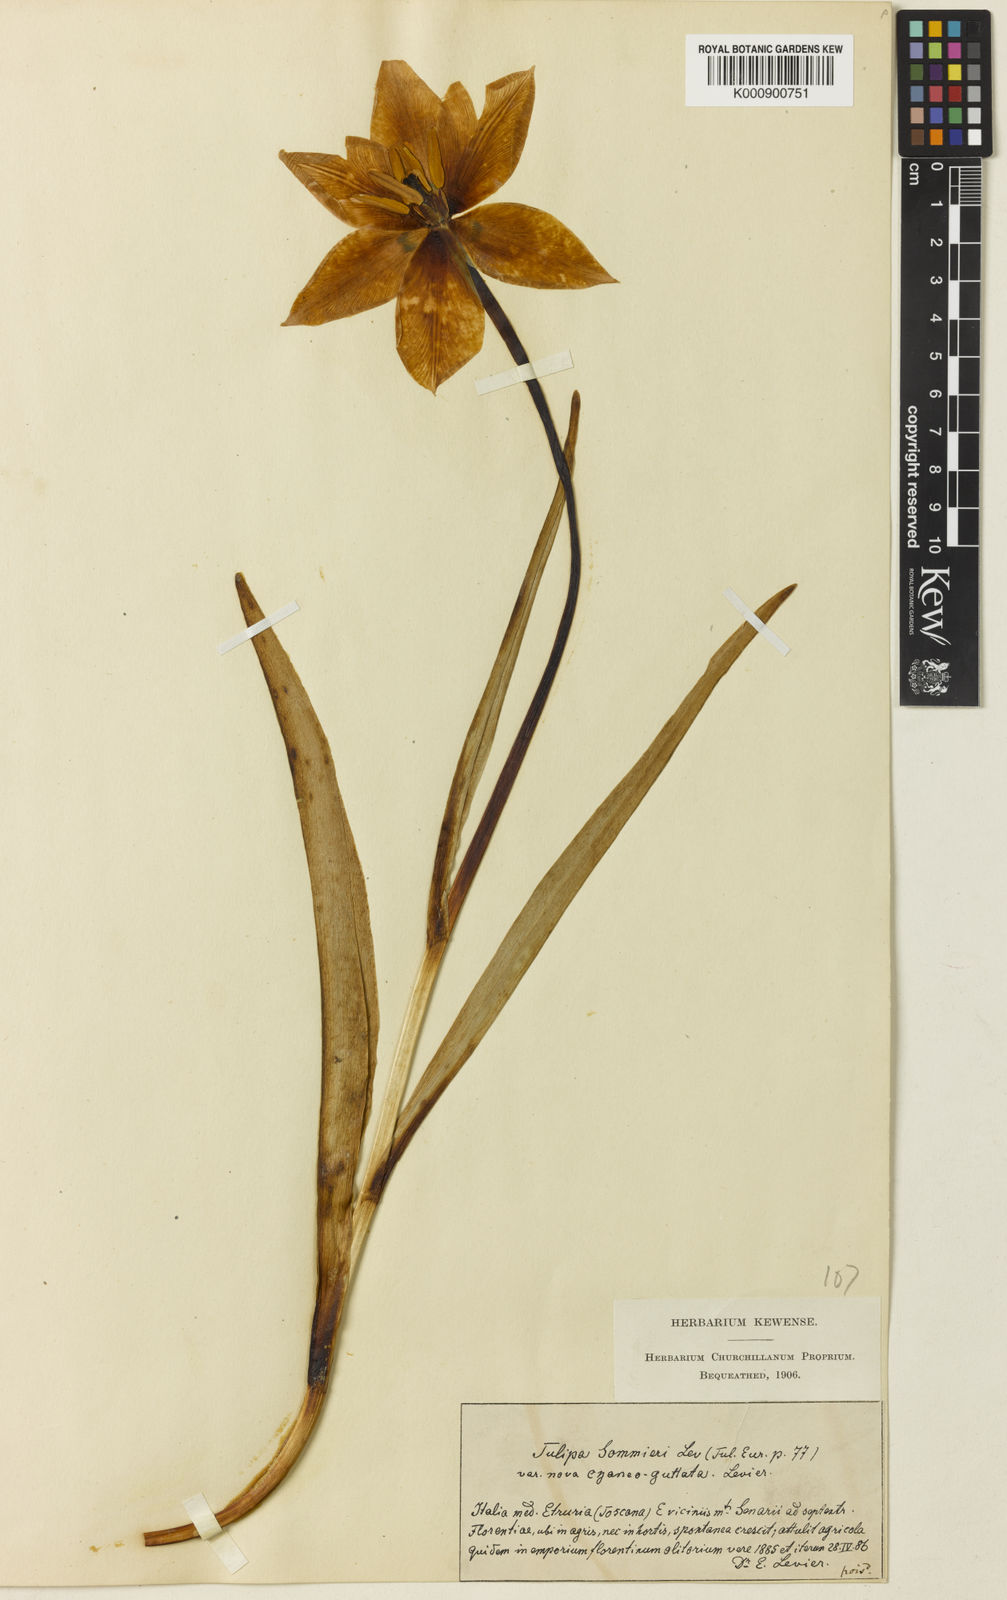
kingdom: Plantae
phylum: Tracheophyta
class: Liliopsida
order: Liliales
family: Liliaceae
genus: Tulipa
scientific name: Tulipa gesneriana
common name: Garden tulip
